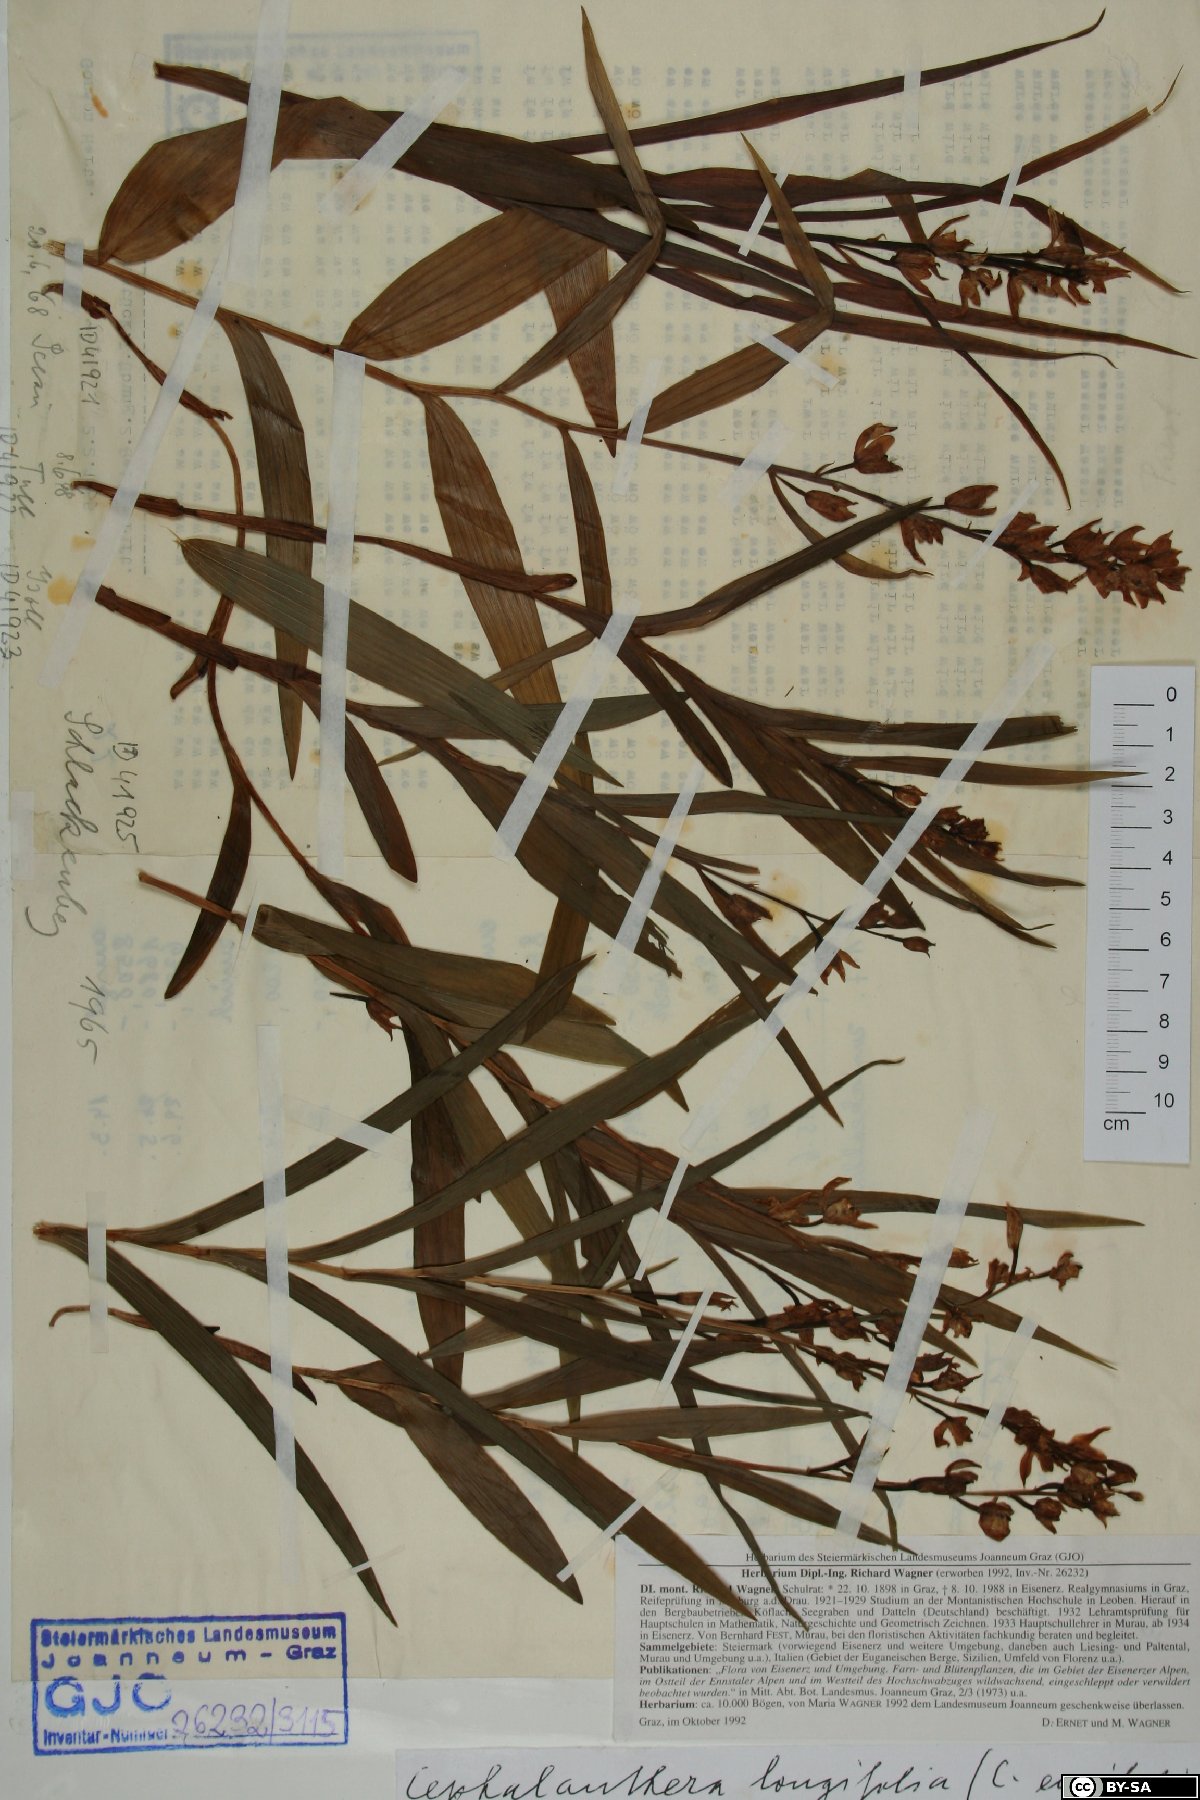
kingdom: Plantae
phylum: Tracheophyta
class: Liliopsida
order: Asparagales
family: Orchidaceae
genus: Cephalanthera
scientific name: Cephalanthera longifolia
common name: Narrow-leaved helleborine
